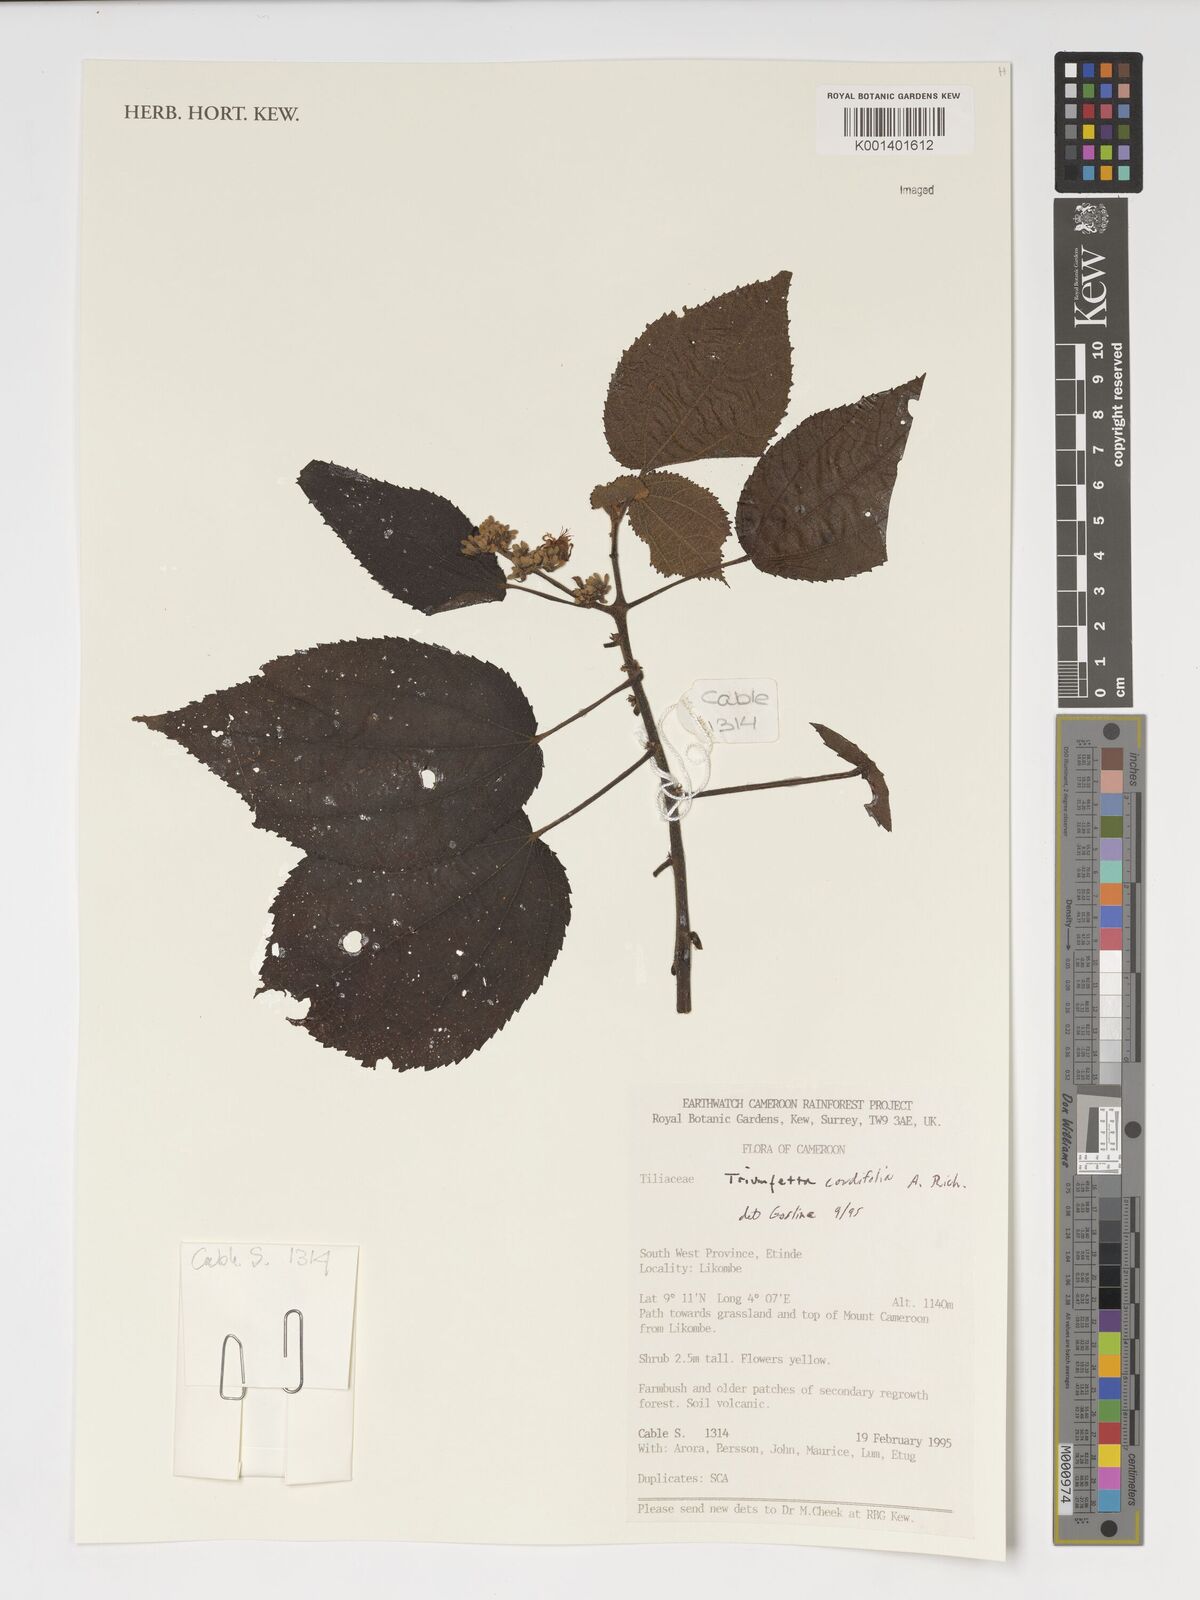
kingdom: Plantae
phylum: Tracheophyta
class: Magnoliopsida
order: Malvales
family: Malvaceae
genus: Triumfetta
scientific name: Triumfetta cordifolia
